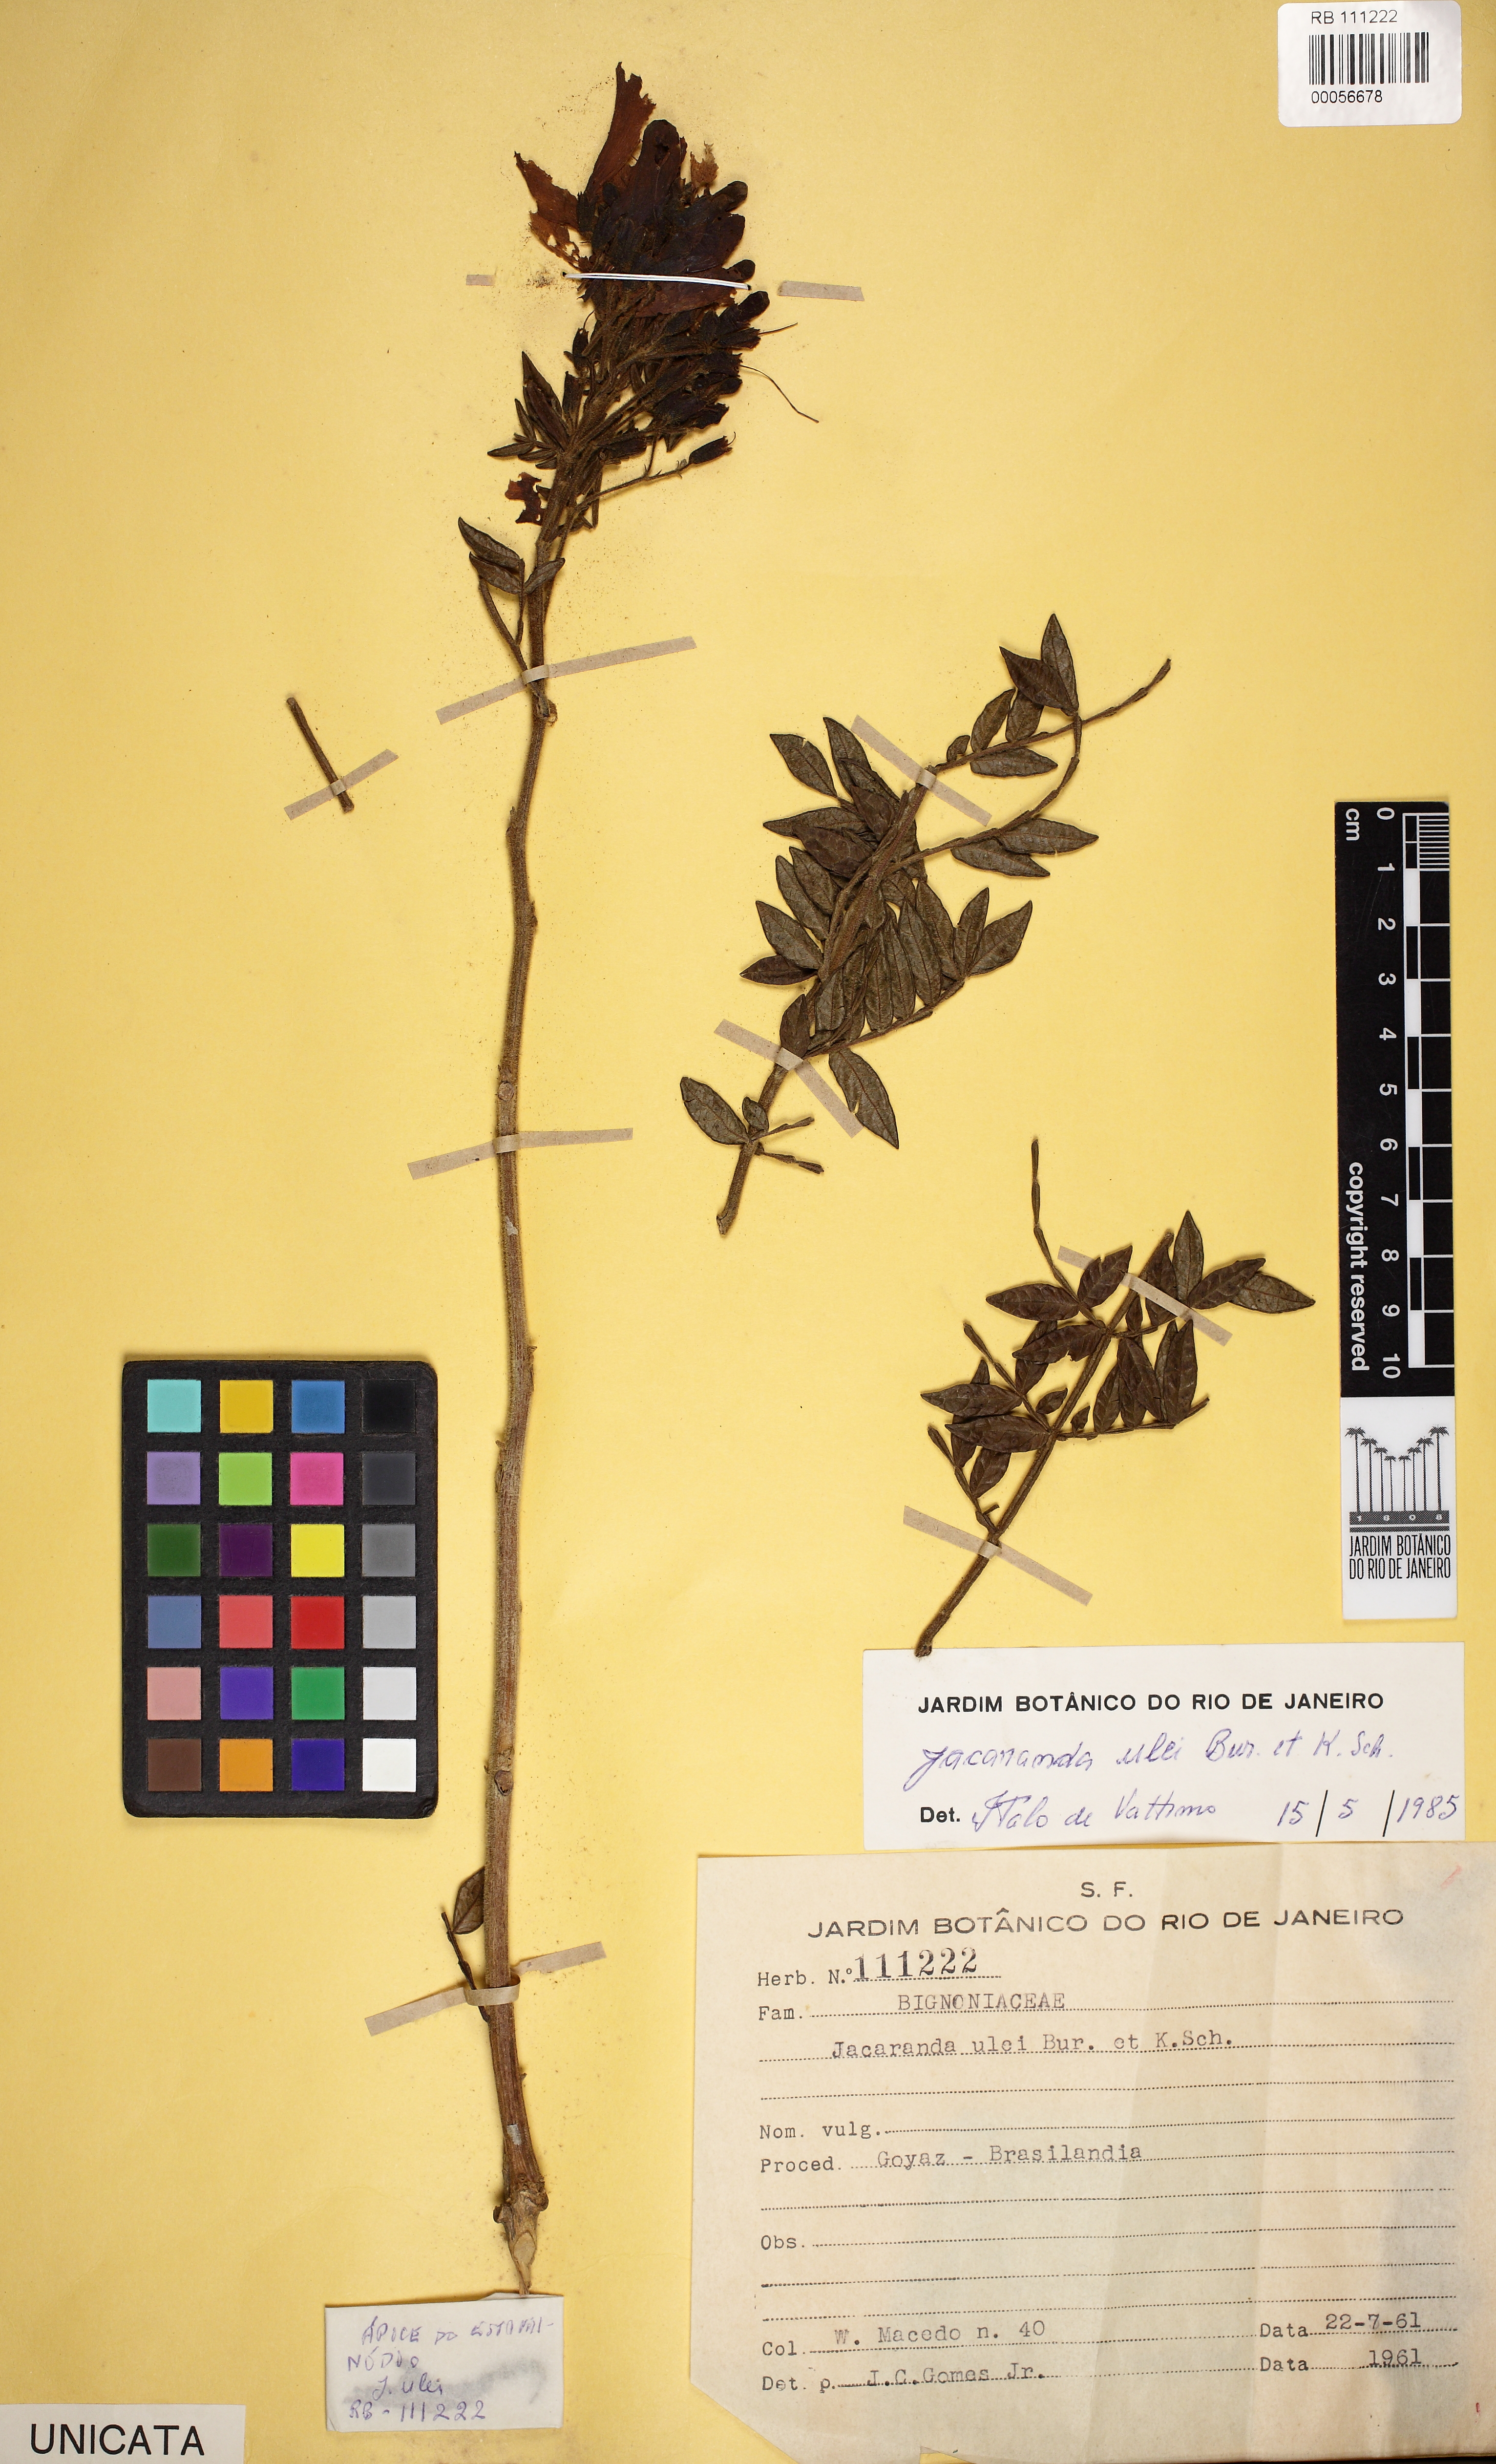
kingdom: Plantae
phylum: Tracheophyta
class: Magnoliopsida
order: Lamiales
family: Bignoniaceae
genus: Jacaranda
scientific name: Jacaranda ulei
